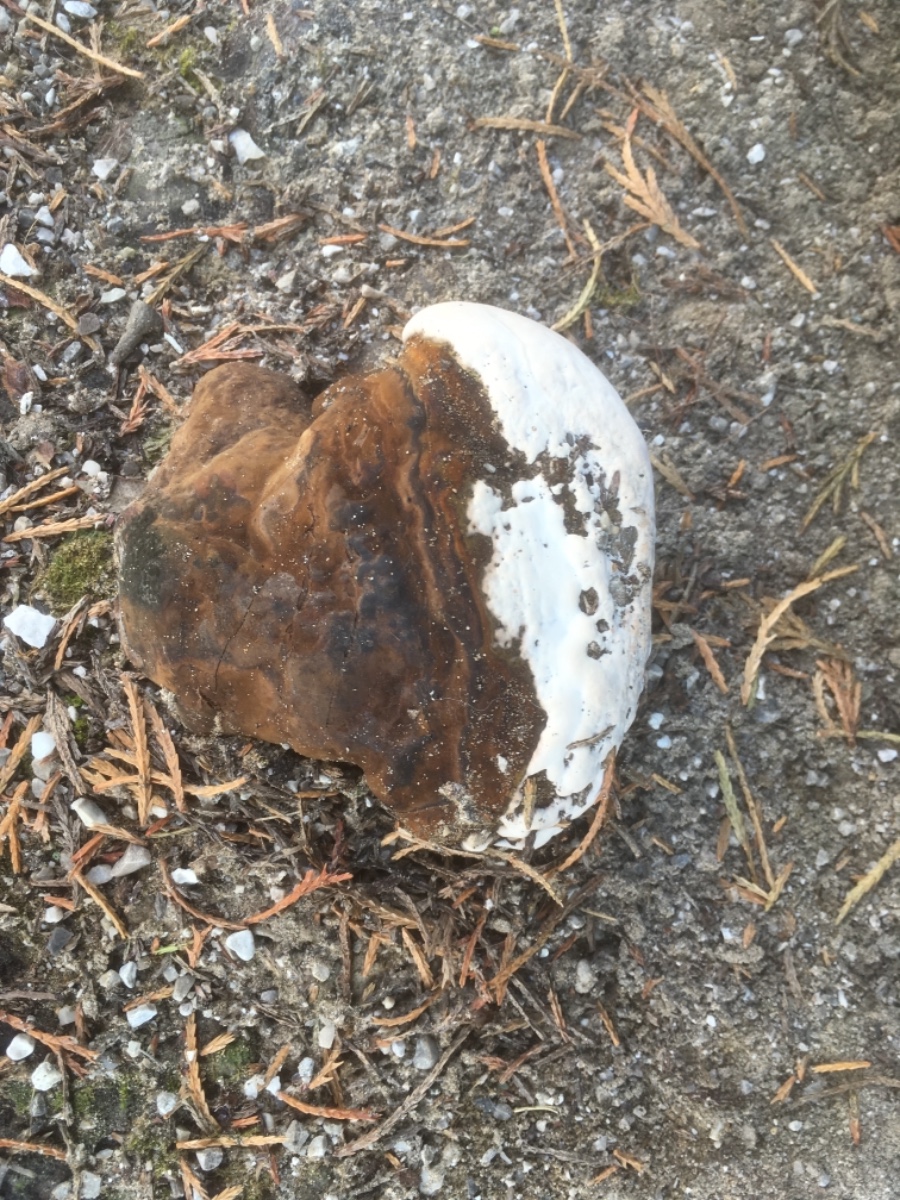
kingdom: Fungi
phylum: Basidiomycota
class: Agaricomycetes
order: Polyporales
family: Polyporaceae
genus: Ganoderma
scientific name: Ganoderma applanatum
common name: flad lakporesvamp
